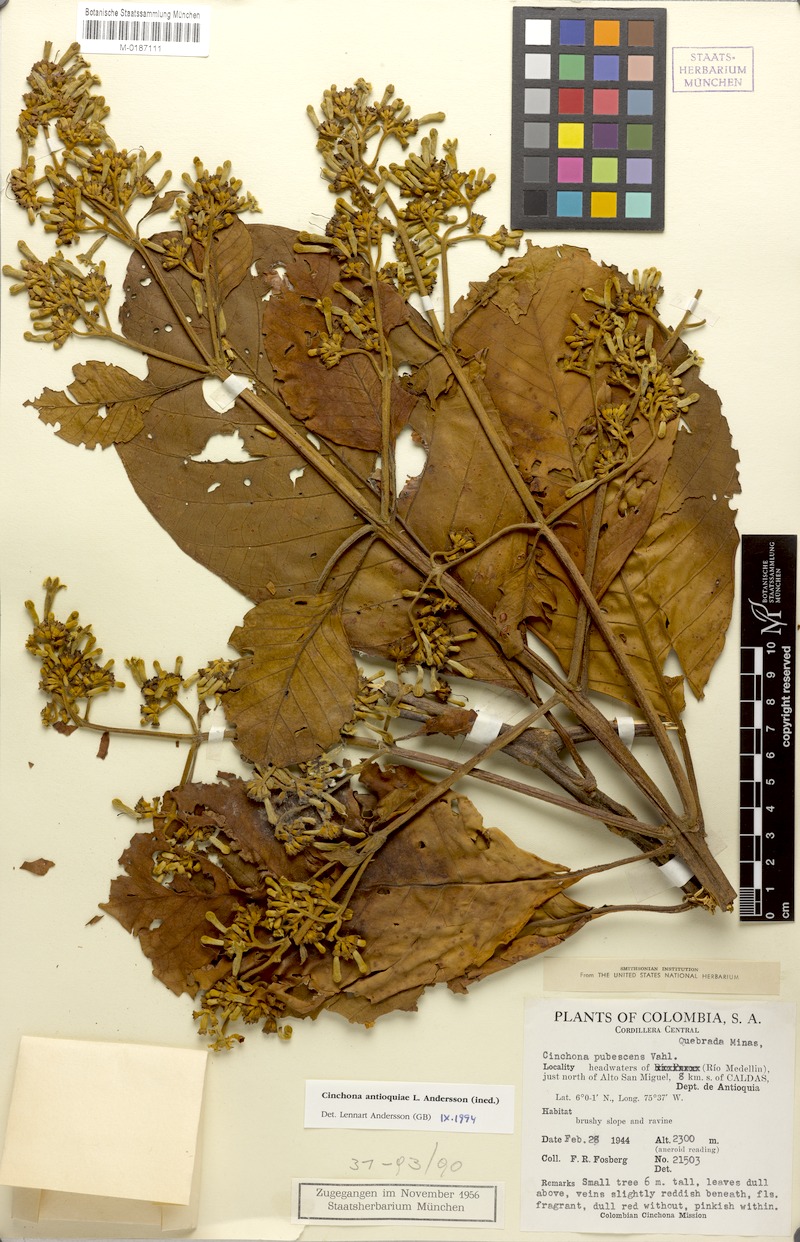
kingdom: Plantae
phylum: Tracheophyta
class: Magnoliopsida
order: Gentianales
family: Rubiaceae
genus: Cinchona
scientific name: Cinchona antioquiae
